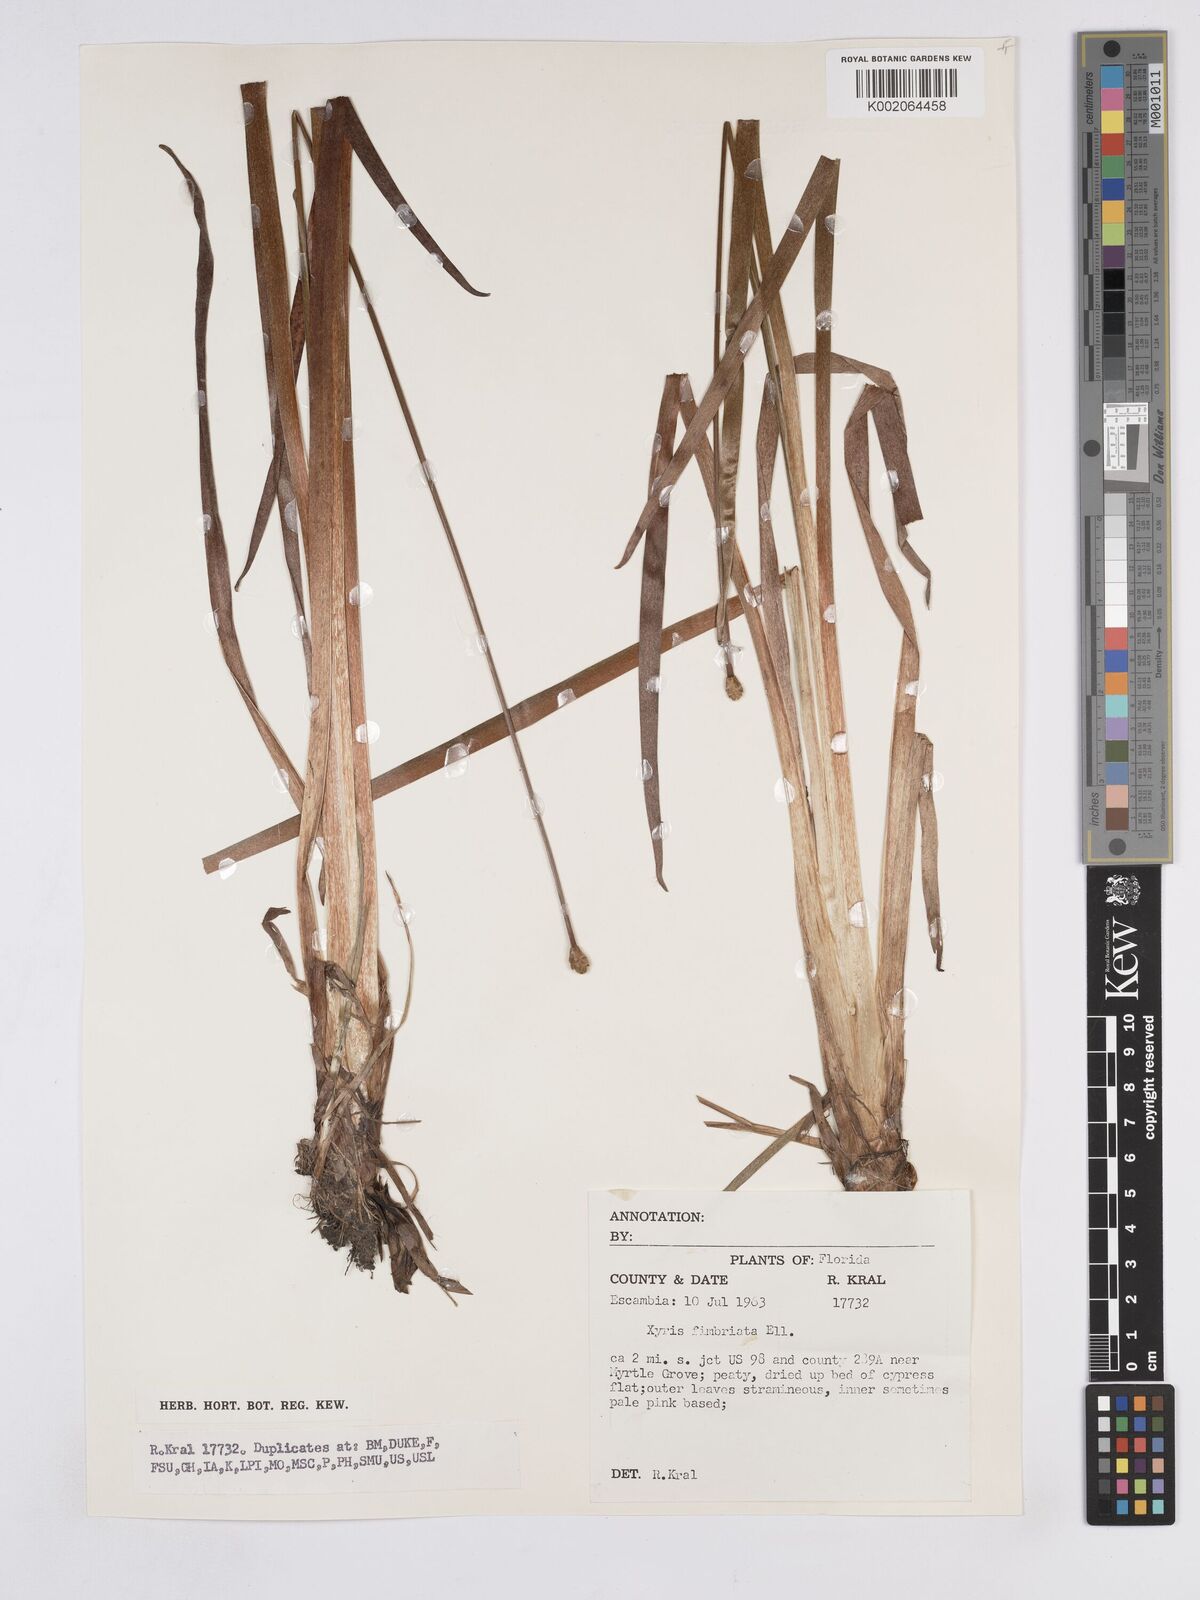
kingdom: Plantae
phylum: Tracheophyta
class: Liliopsida
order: Poales
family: Xyridaceae
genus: Xyris
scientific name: Xyris fimbriata
